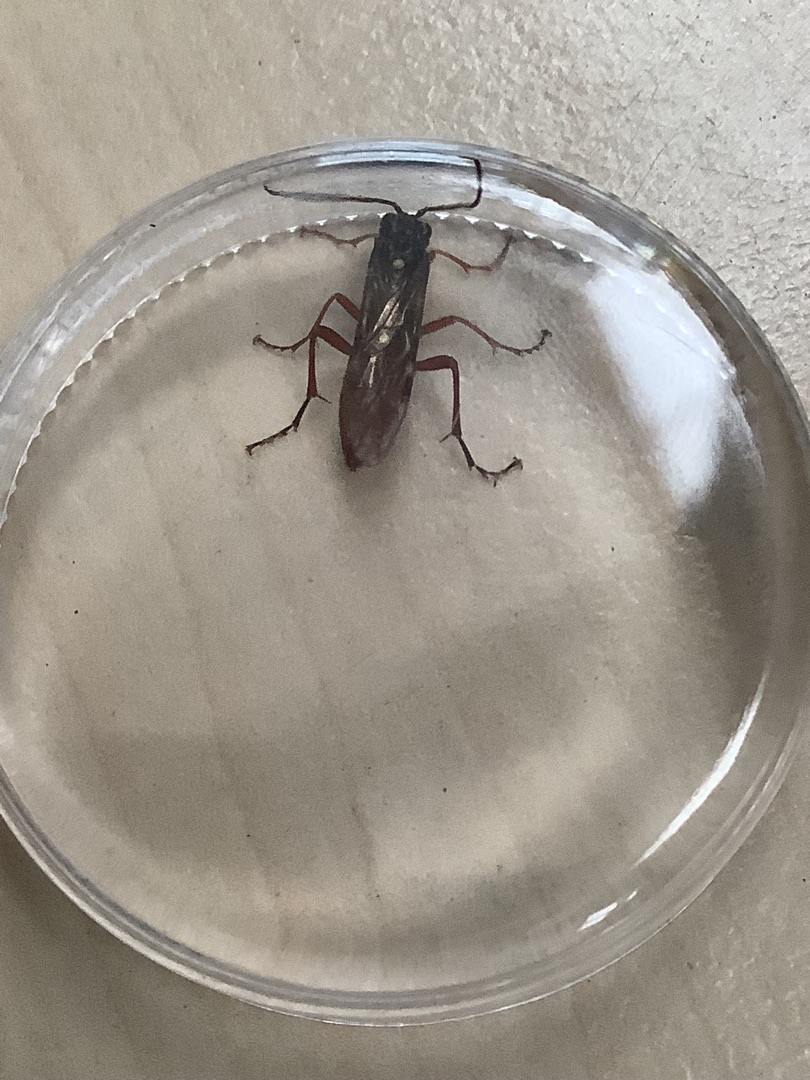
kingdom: Animalia
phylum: Arthropoda
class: Insecta
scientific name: Insecta
